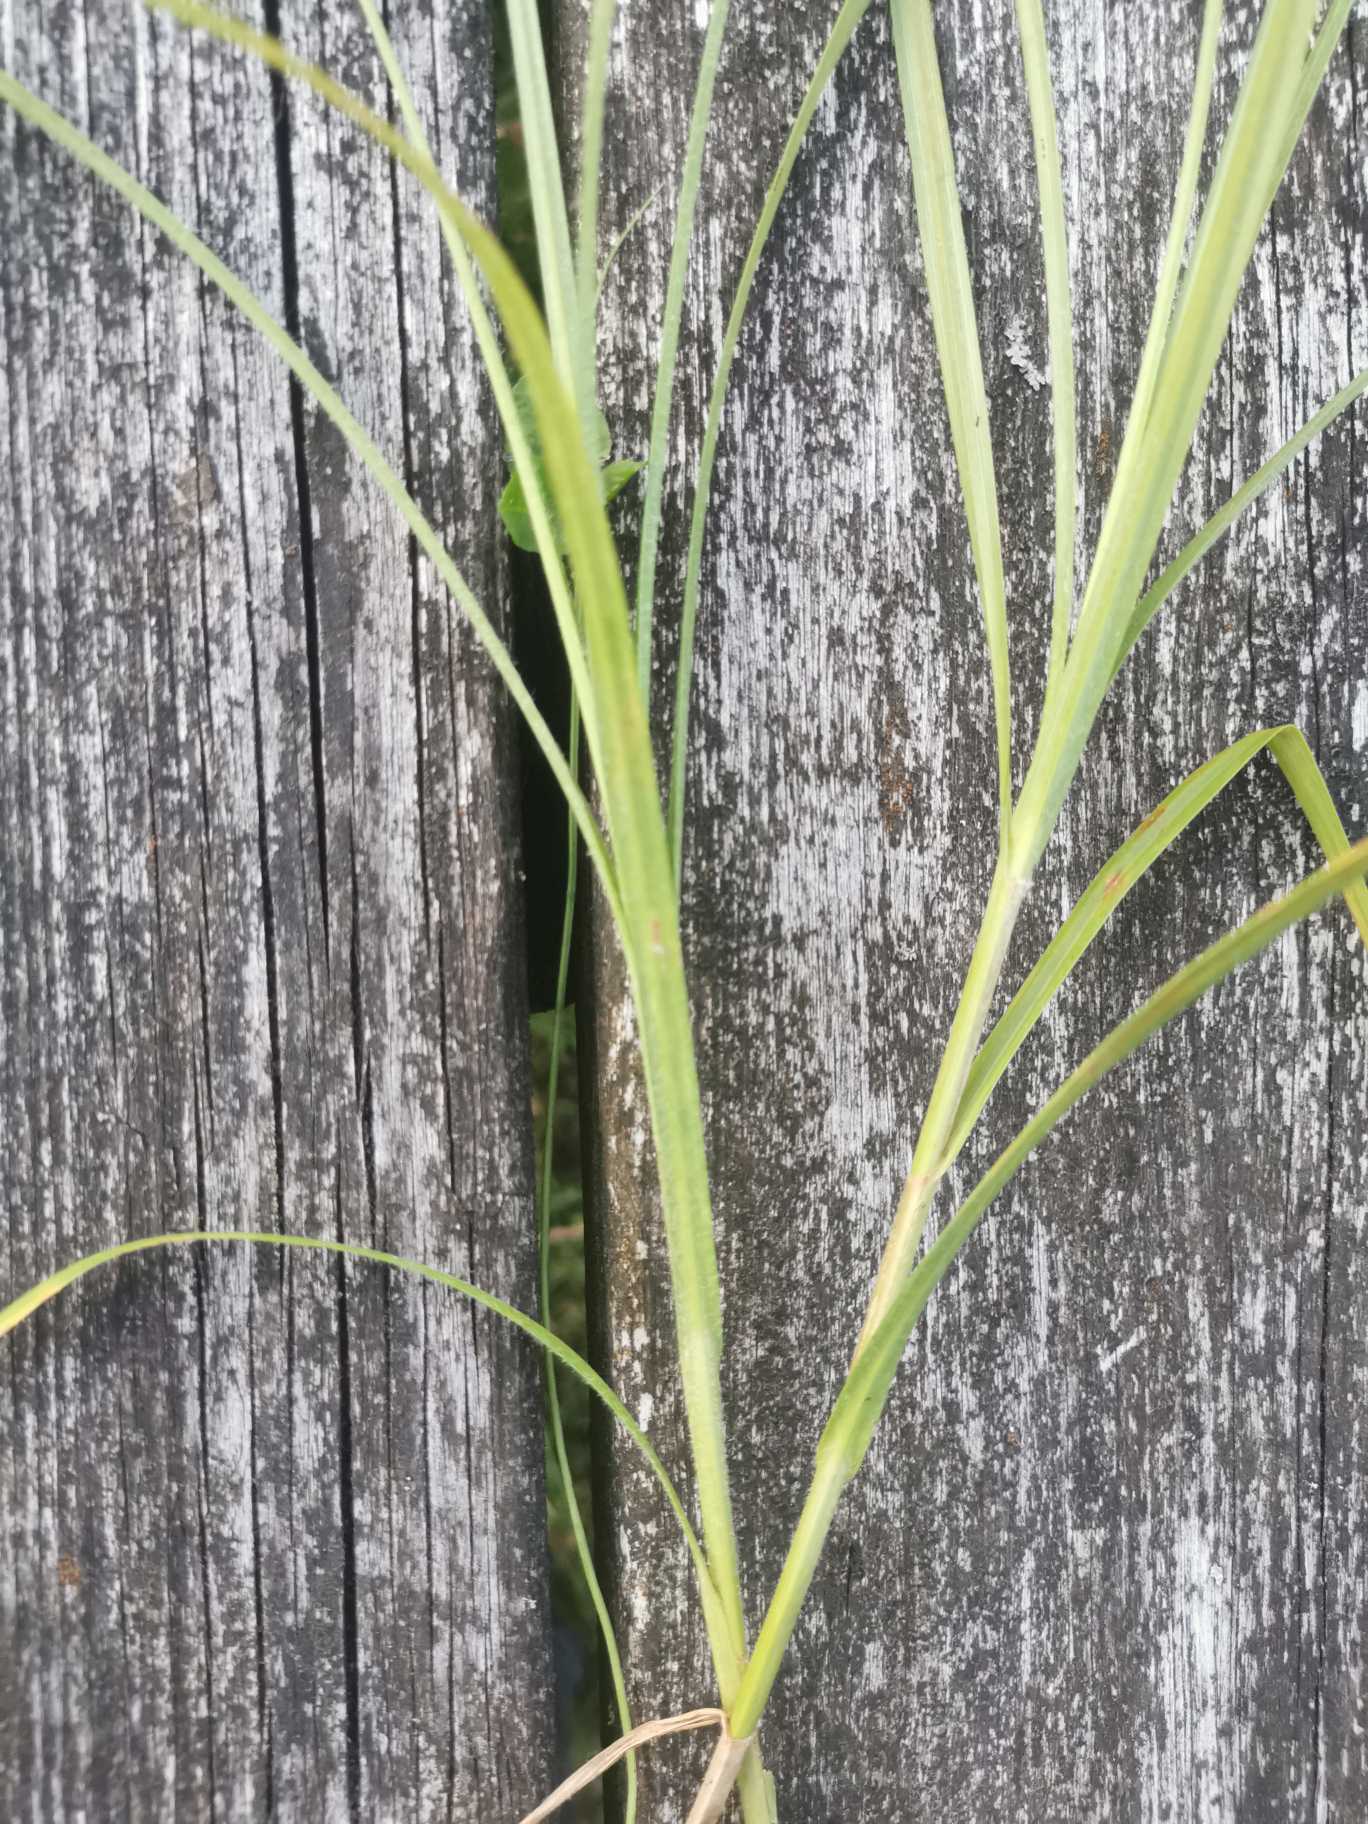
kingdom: Plantae
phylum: Tracheophyta
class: Liliopsida
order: Poales
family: Cyperaceae
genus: Carex
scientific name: Carex hirta
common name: Håret star
